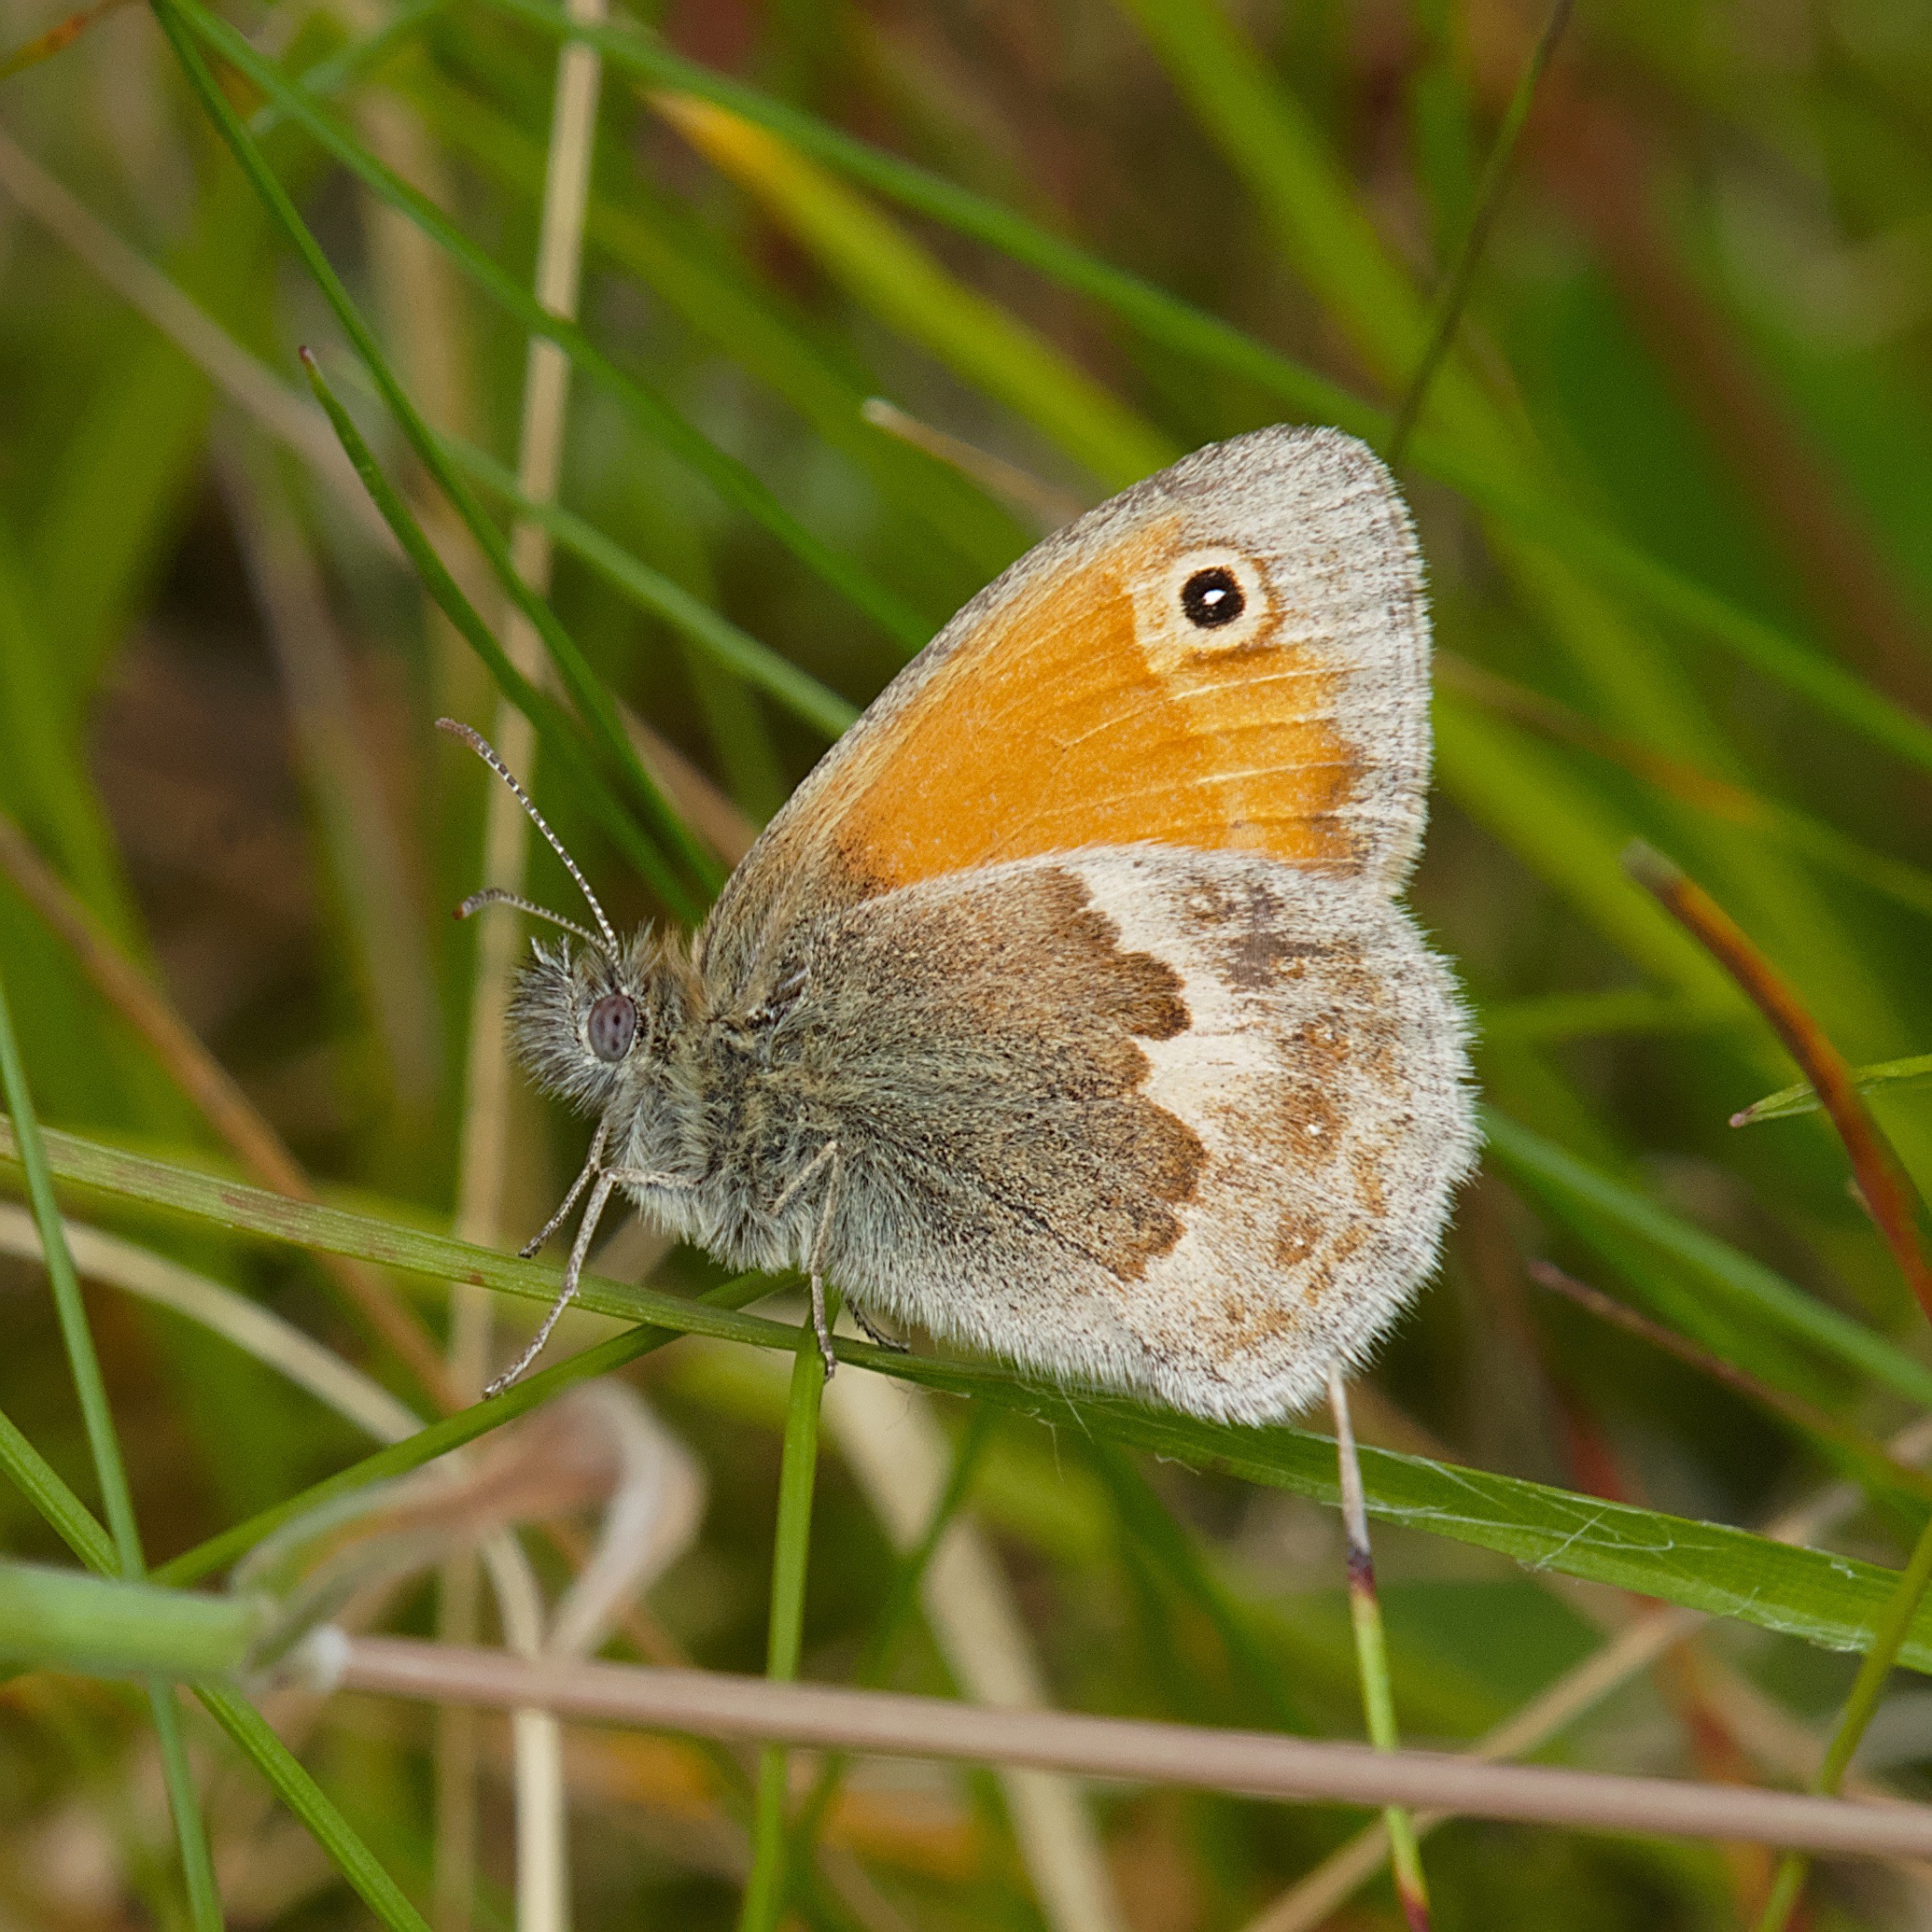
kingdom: Animalia
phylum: Arthropoda
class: Insecta
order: Lepidoptera
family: Nymphalidae
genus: Coenonympha
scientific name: Coenonympha pamphilus
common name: Okkergul randøje
